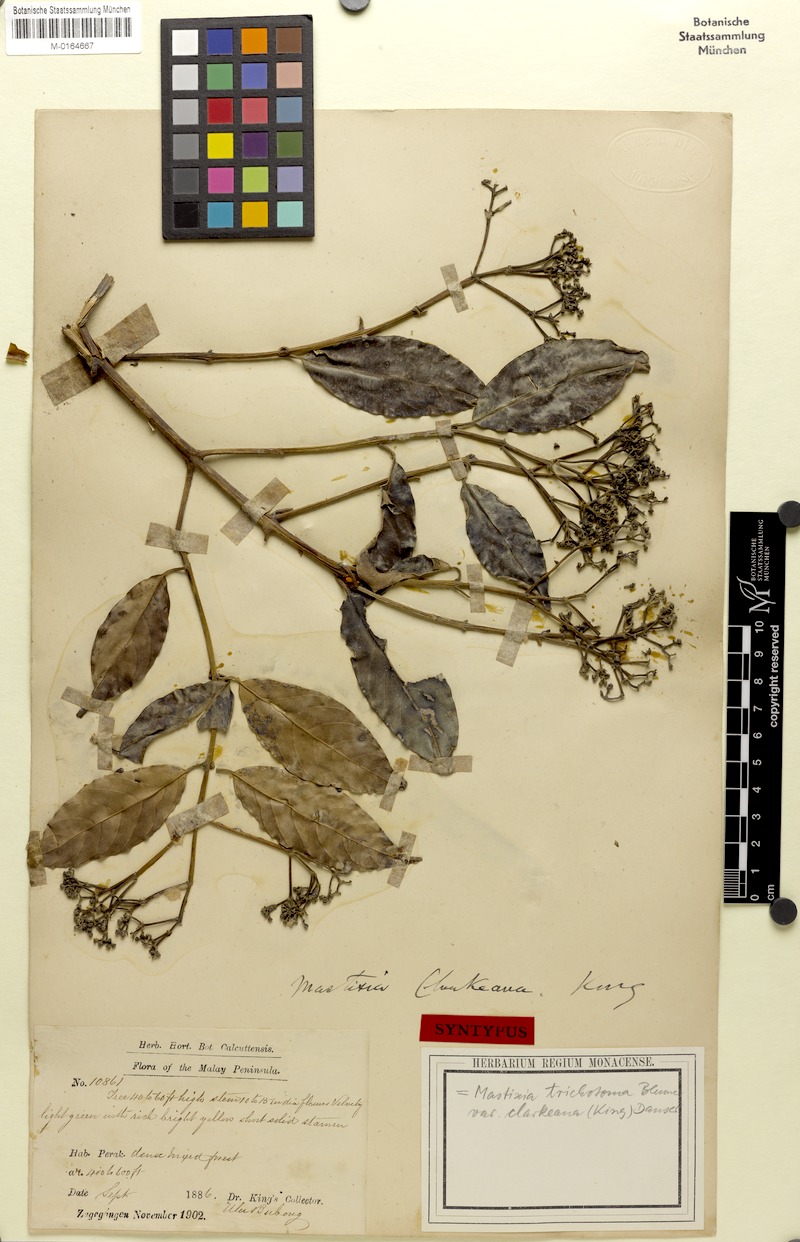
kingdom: Plantae
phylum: Tracheophyta
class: Magnoliopsida
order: Cornales
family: Nyssaceae
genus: Mastixia
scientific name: Mastixia trichotoma
